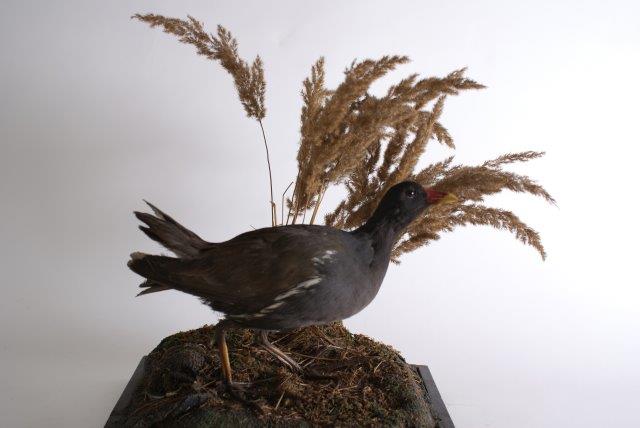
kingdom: Animalia
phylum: Chordata
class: Aves
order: Gruiformes
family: Rallidae
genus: Gallinula
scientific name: Gallinula chloropus
